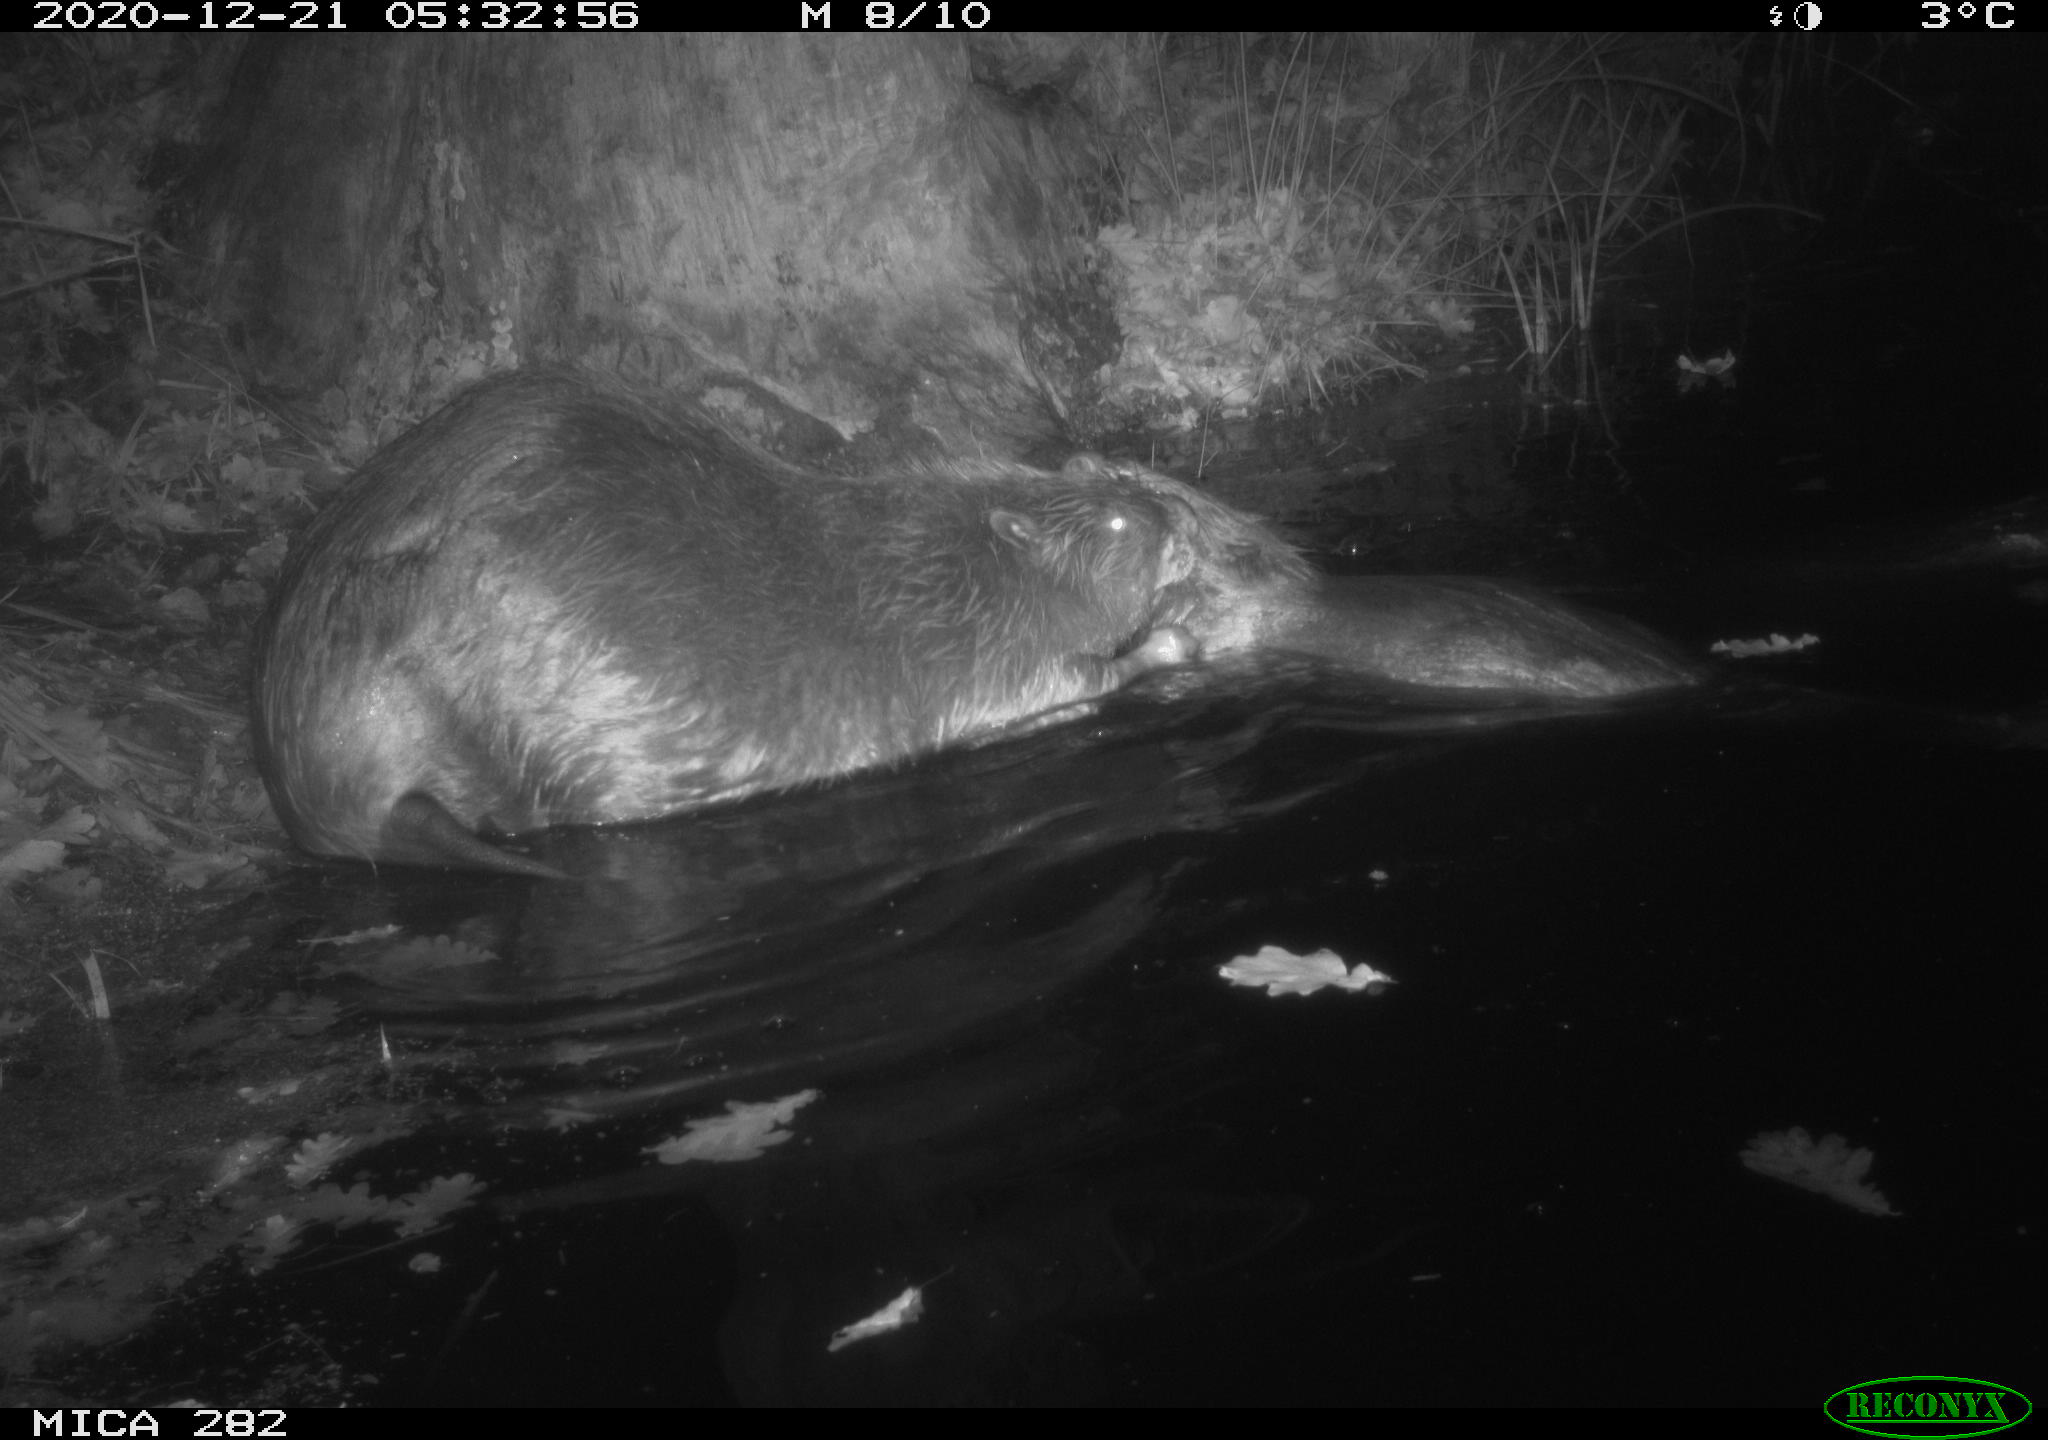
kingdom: Animalia
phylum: Chordata
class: Mammalia
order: Rodentia
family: Castoridae
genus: Castor
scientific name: Castor fiber
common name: Eurasian beaver
